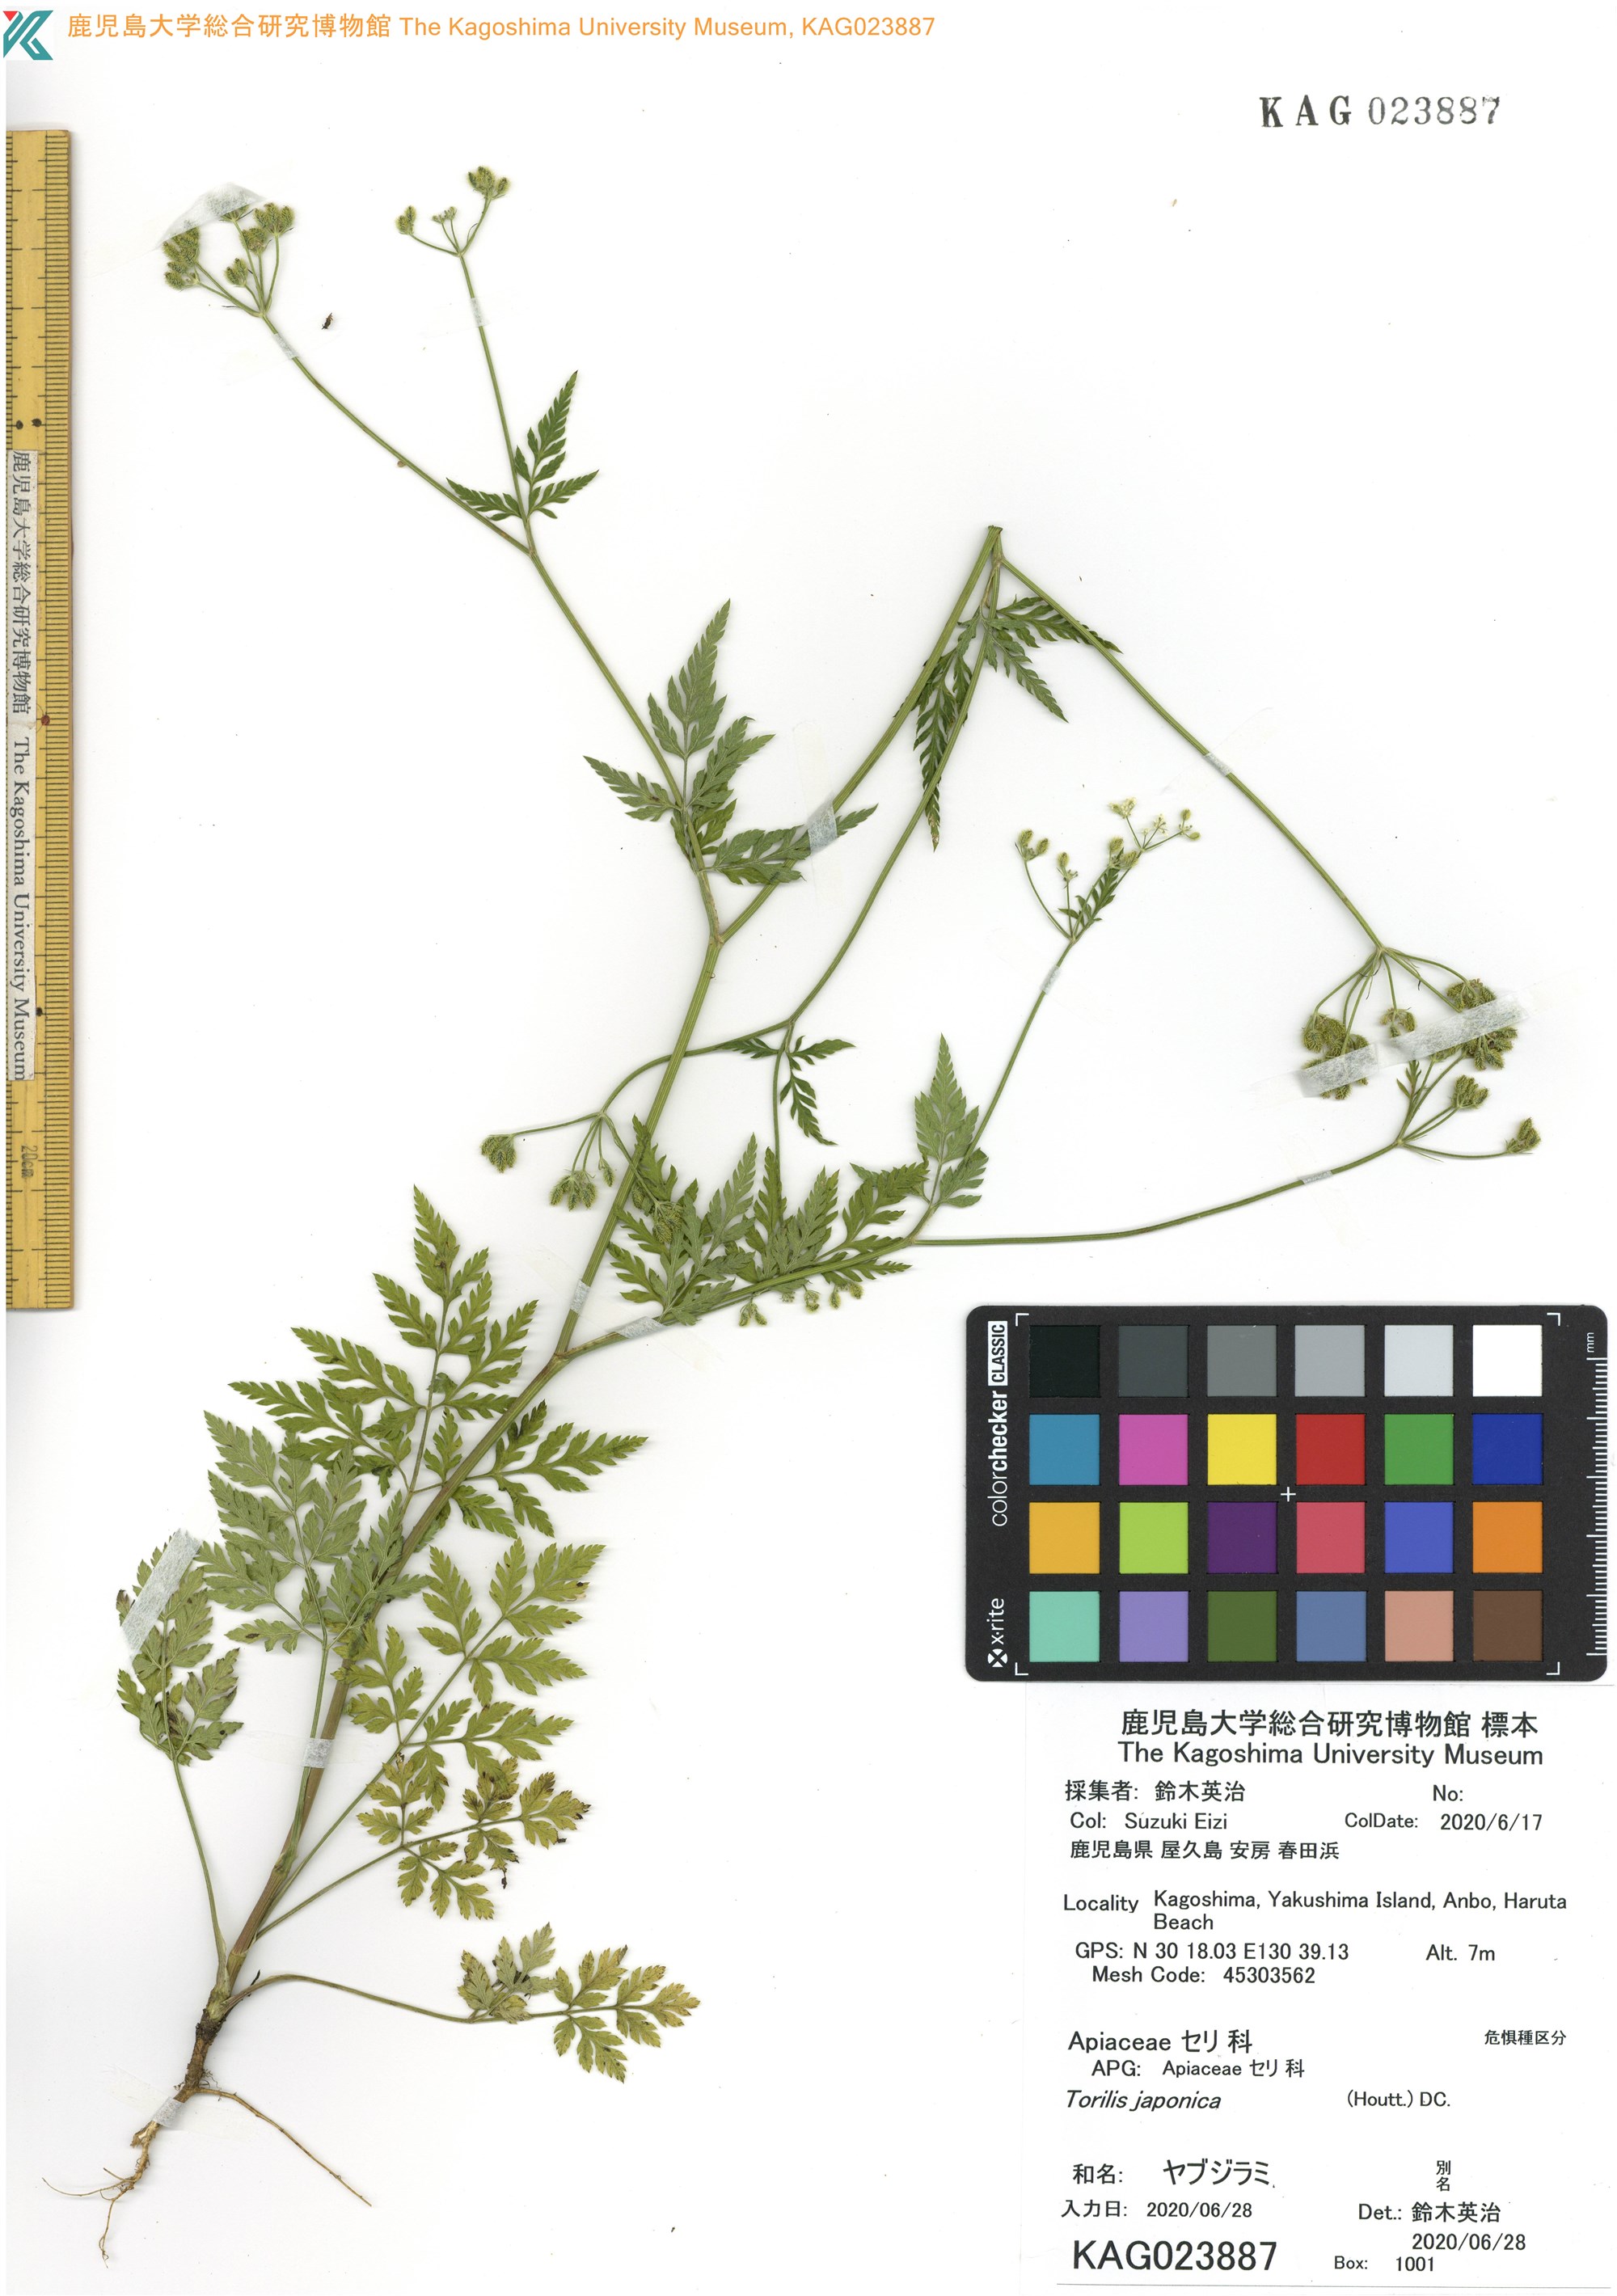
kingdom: Plantae
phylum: Tracheophyta
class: Magnoliopsida
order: Apiales
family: Apiaceae
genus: Torilis
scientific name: Torilis japonica
